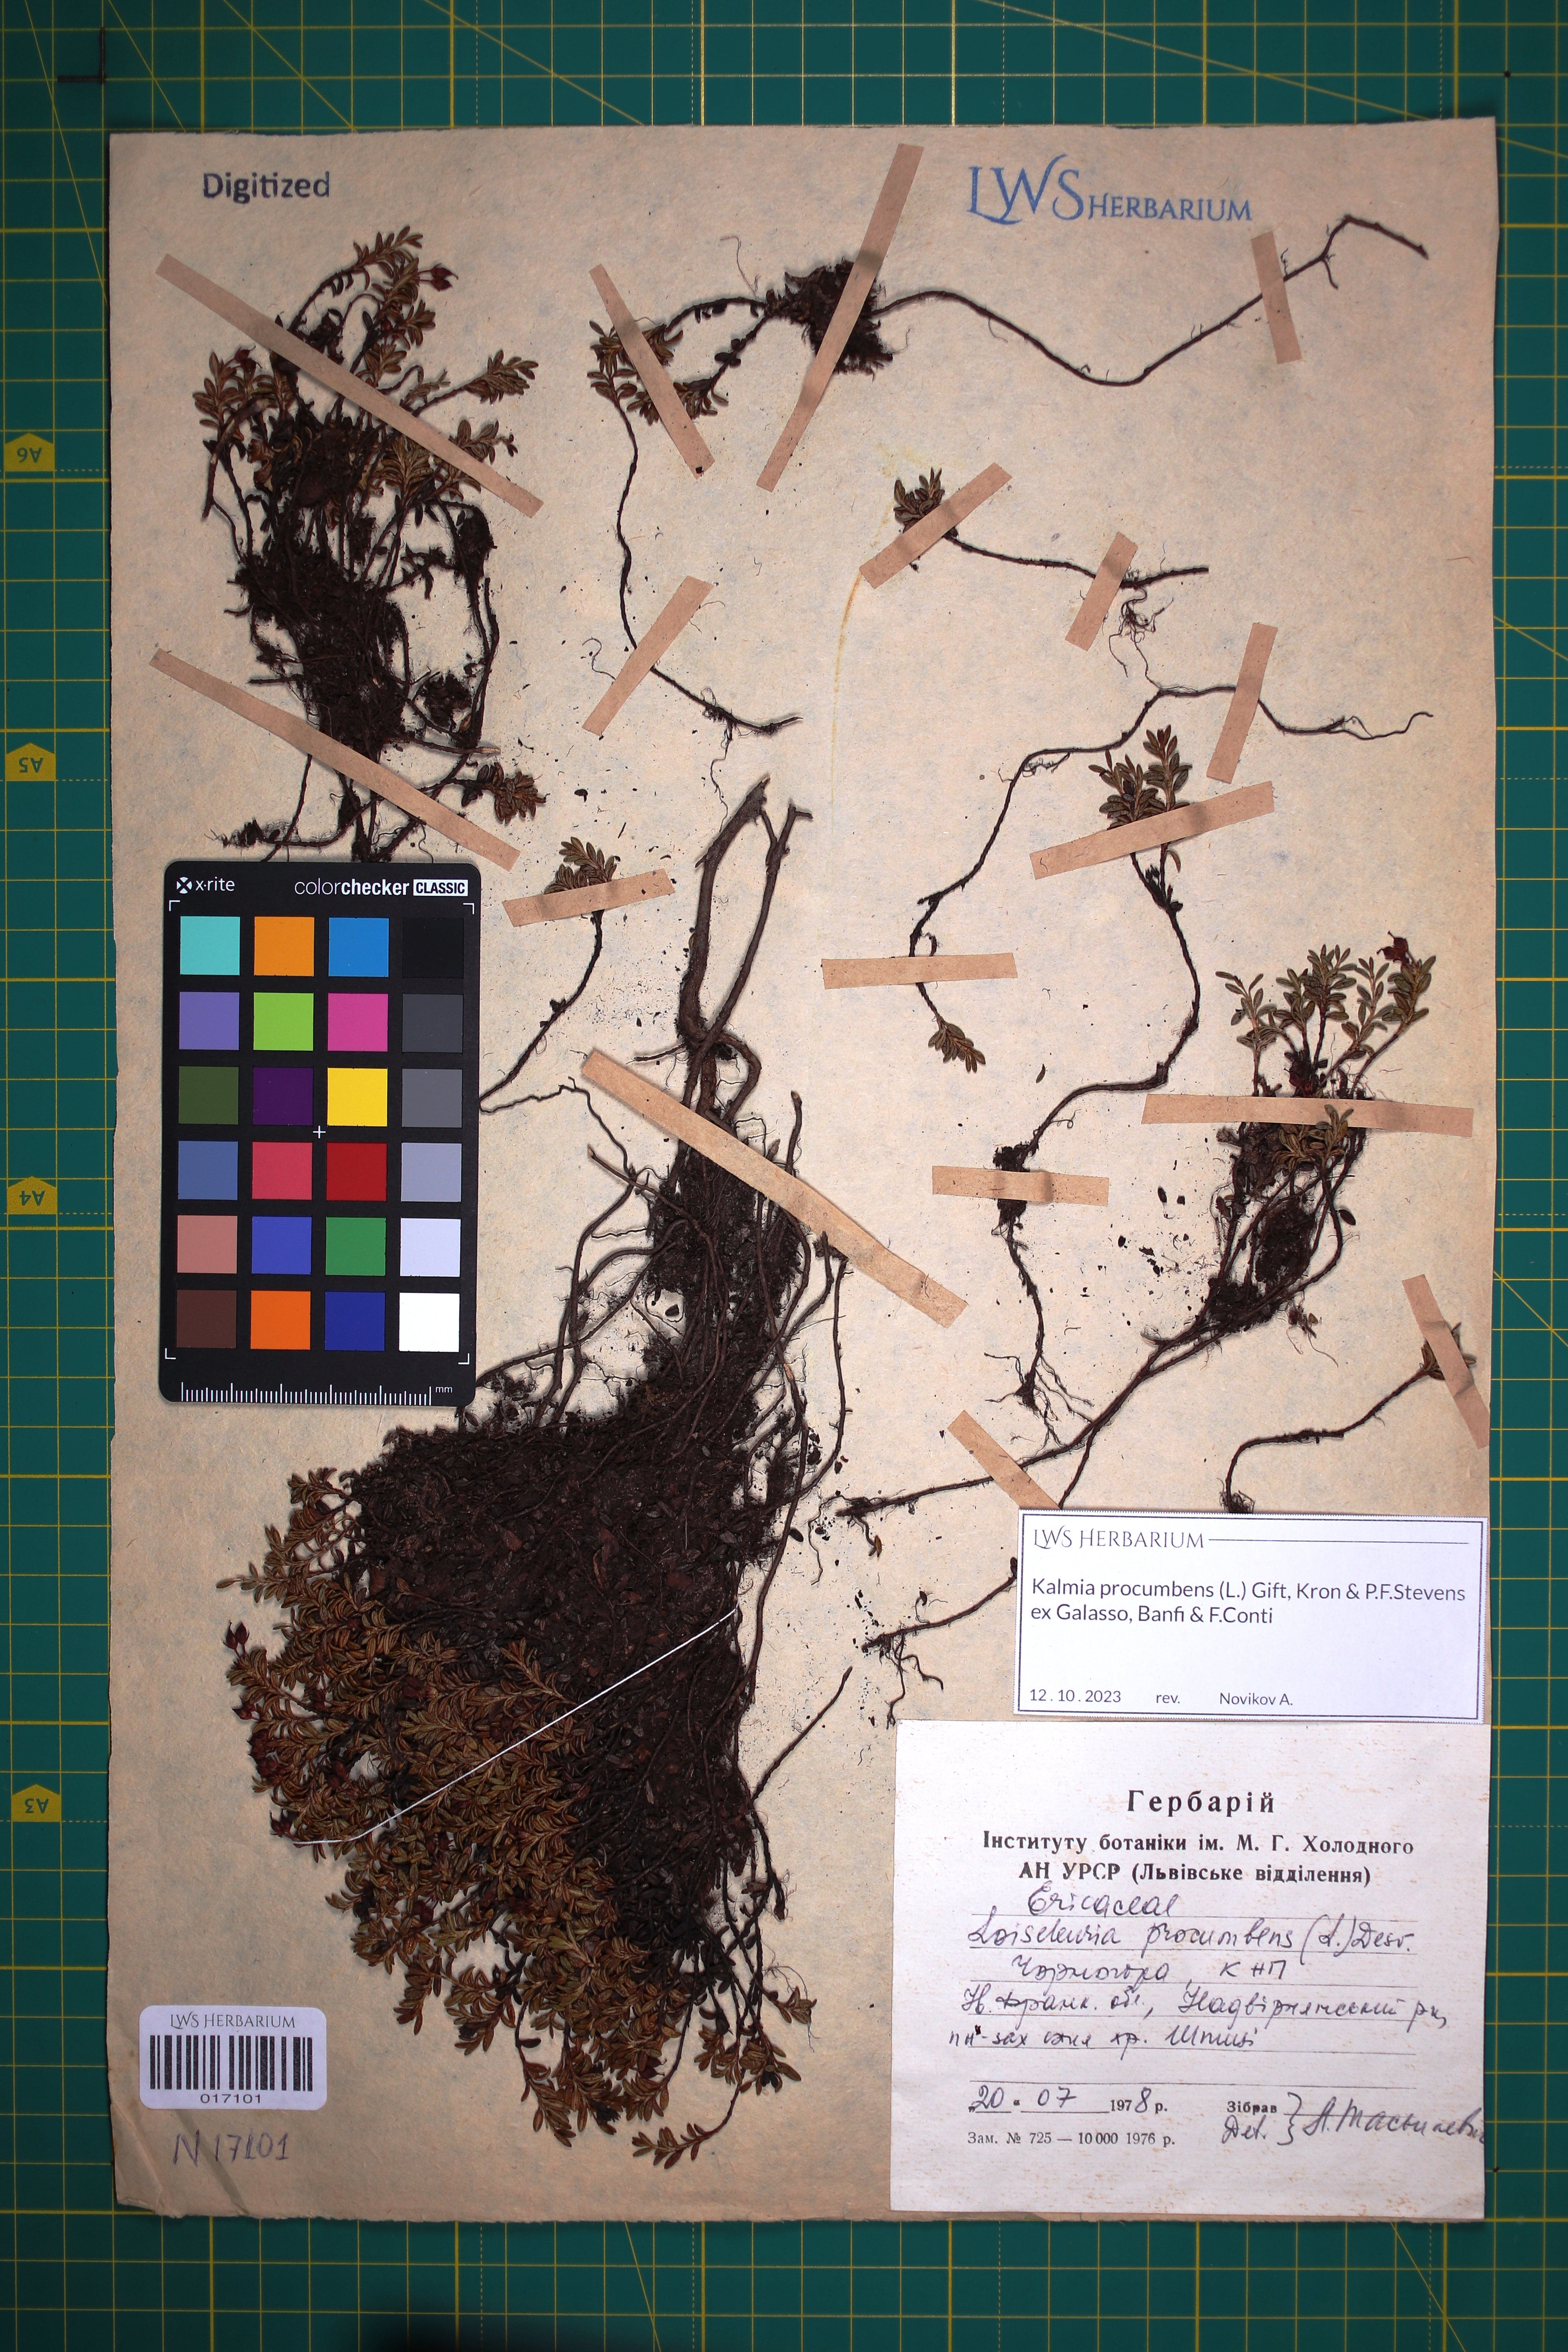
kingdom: Plantae
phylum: Tracheophyta
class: Magnoliopsida
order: Ericales
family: Ericaceae
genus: Kalmia
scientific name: Kalmia procumbens
